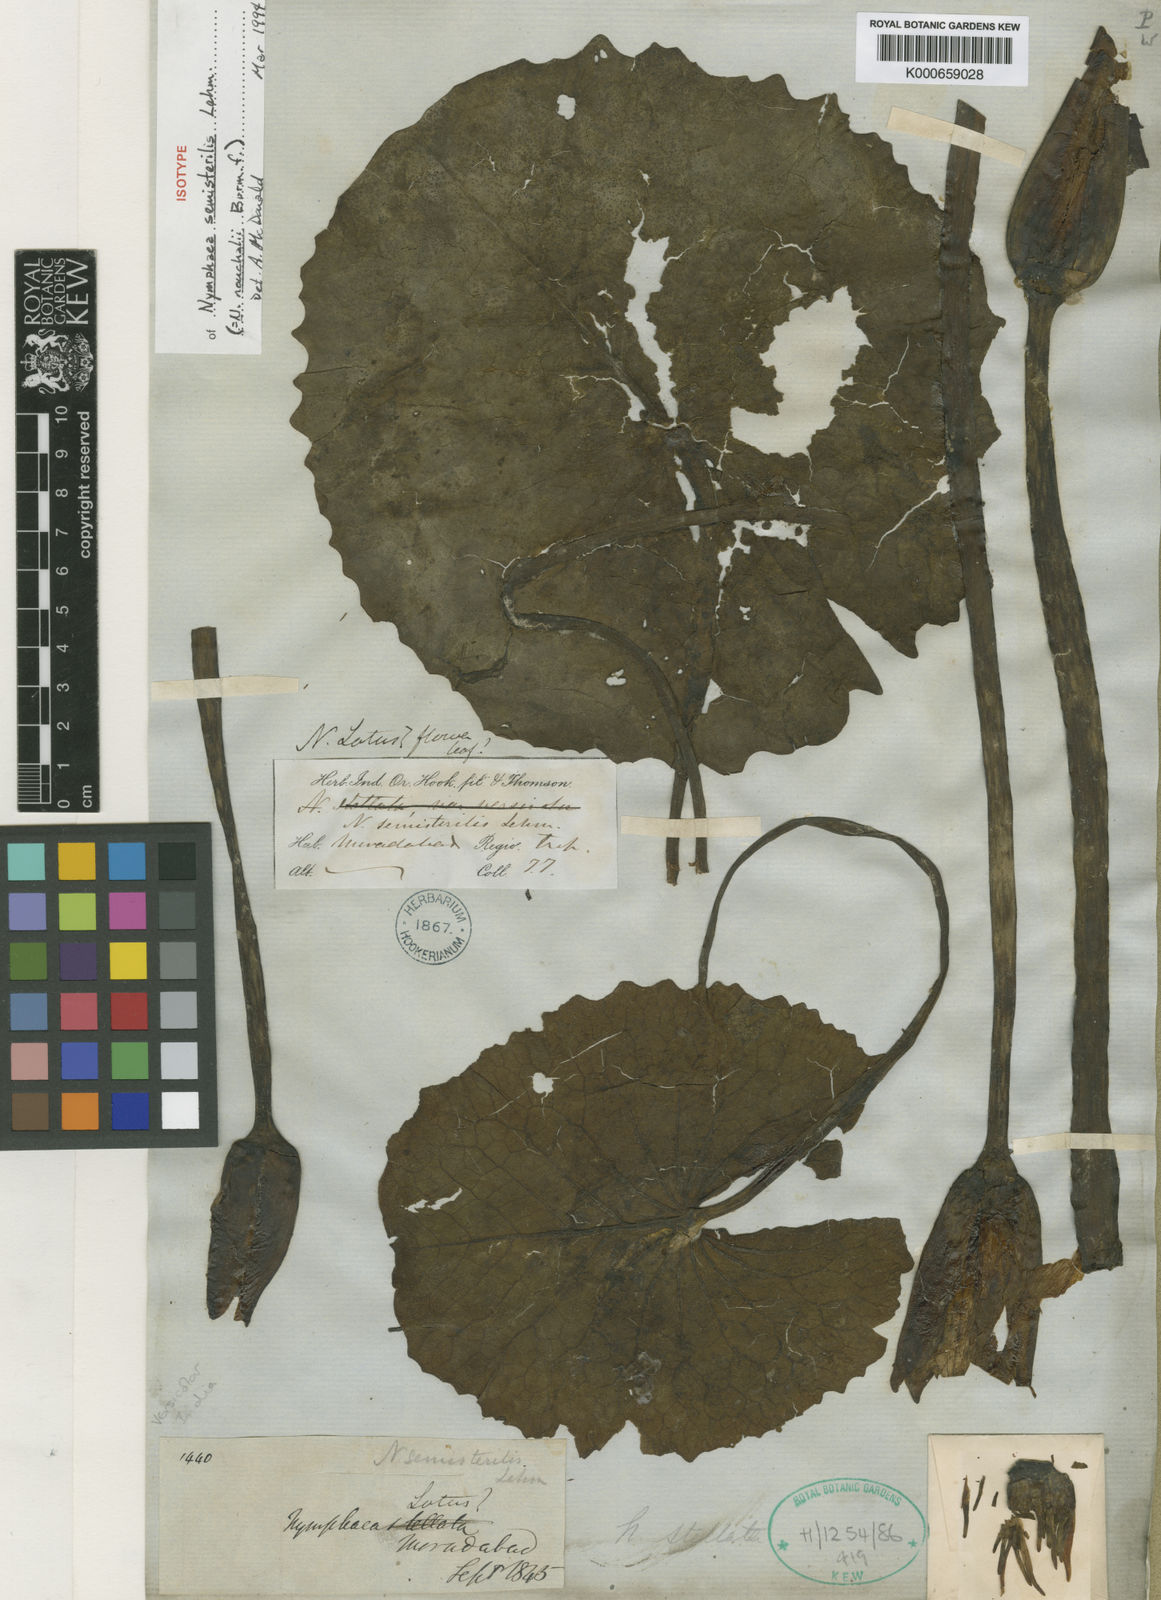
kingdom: Plantae
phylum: Tracheophyta
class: Magnoliopsida
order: Nymphaeales
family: Nymphaeaceae
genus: Nymphaea
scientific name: Nymphaea nouchali
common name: Blue lotus
